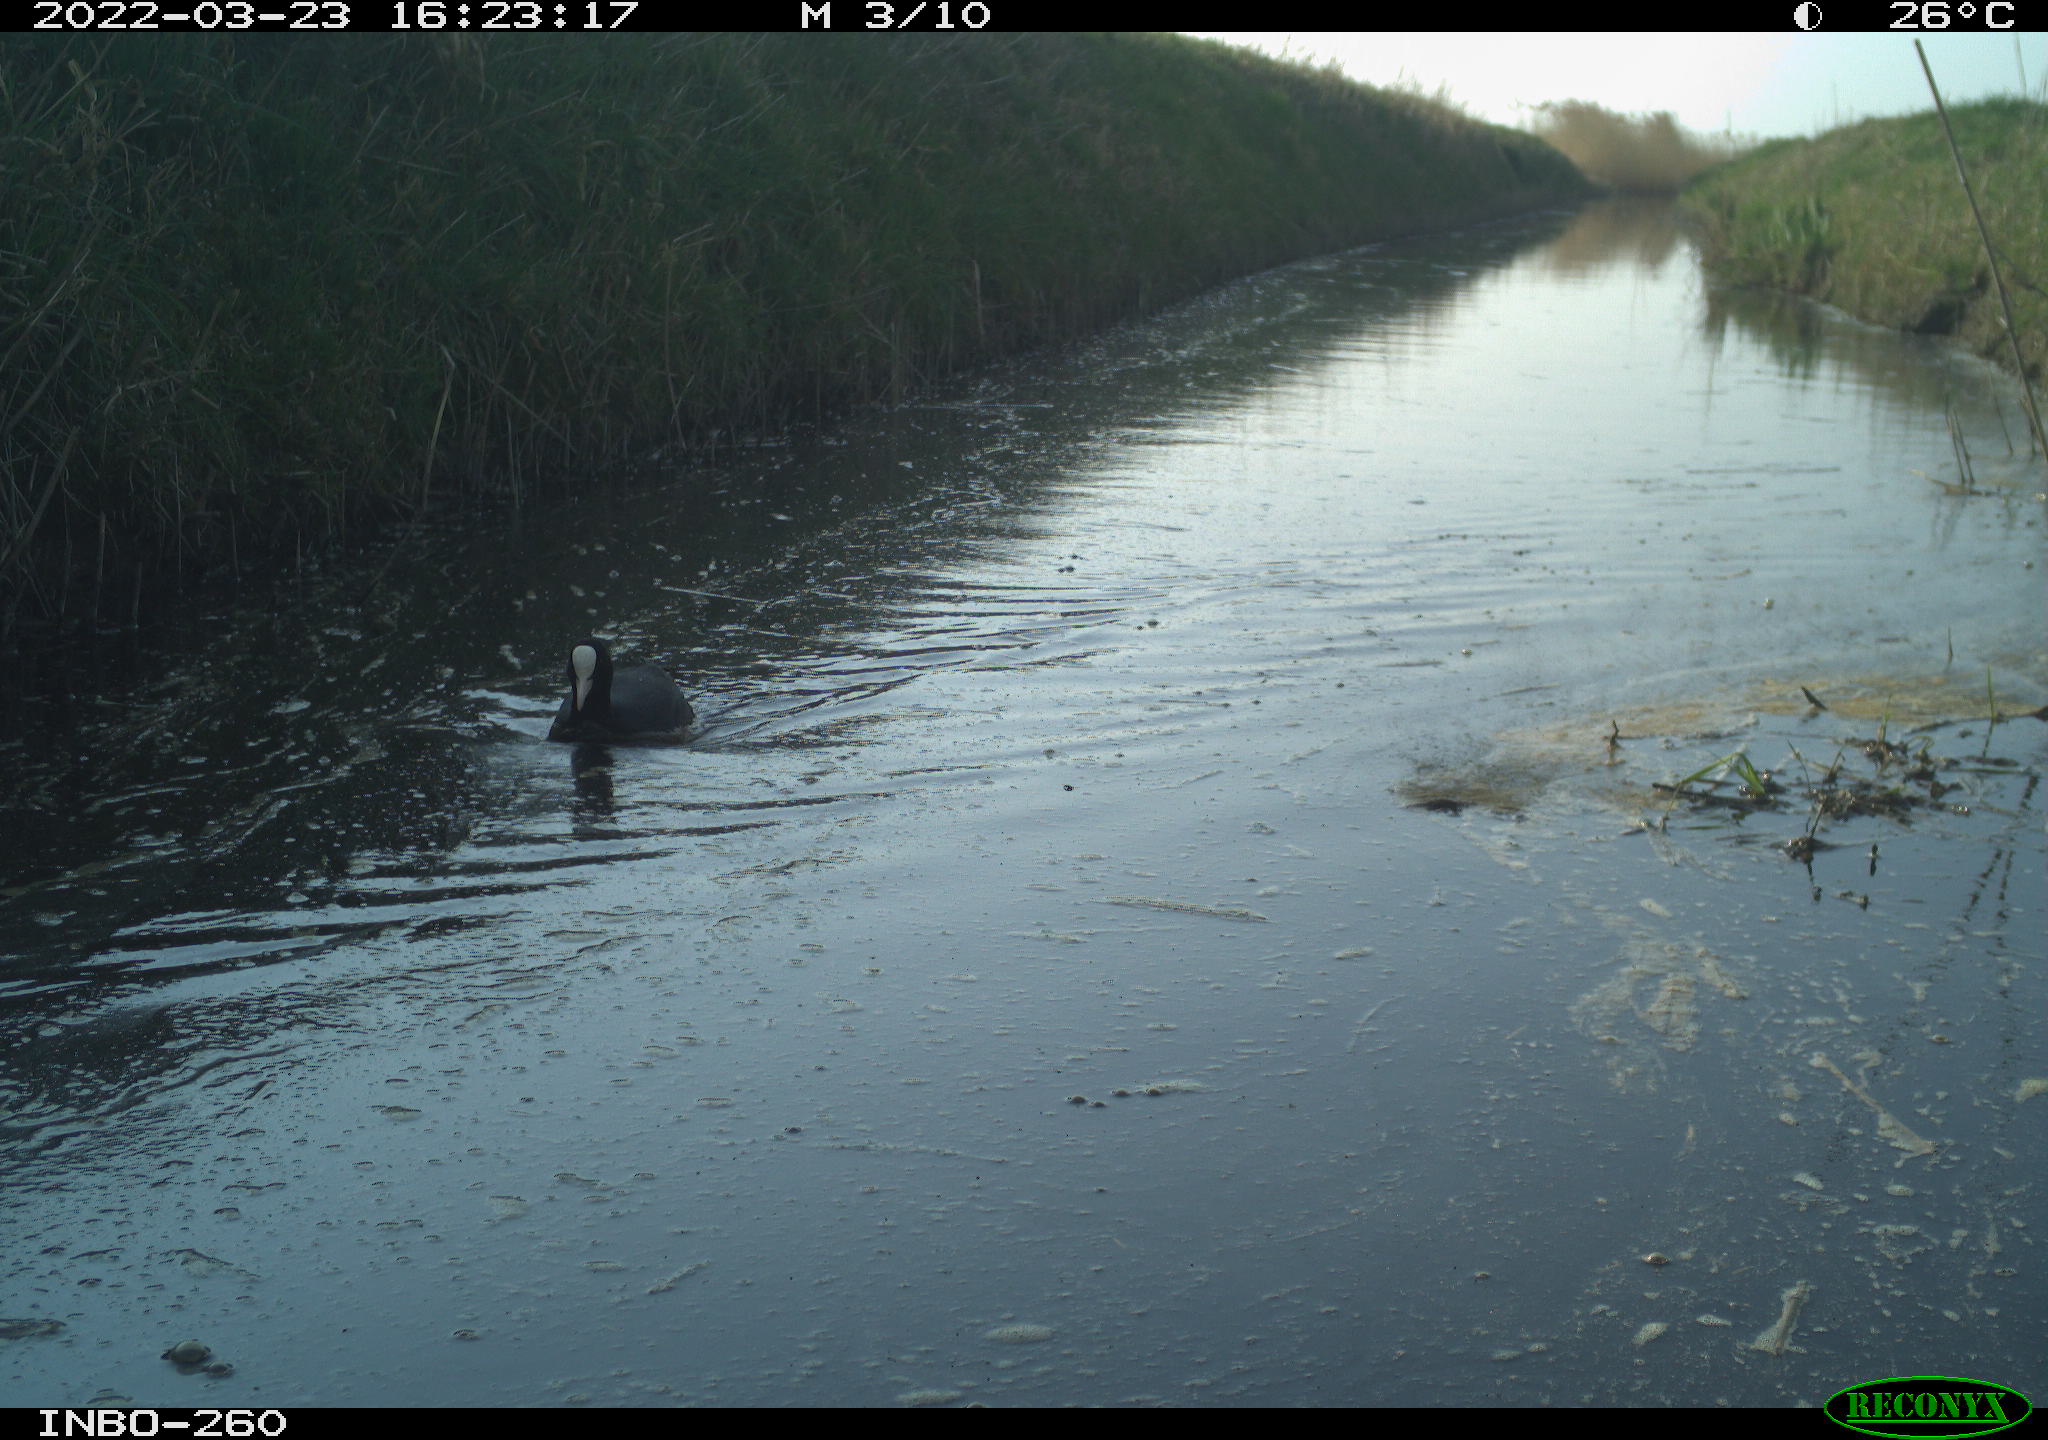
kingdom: Animalia
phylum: Chordata
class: Aves
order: Gruiformes
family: Rallidae
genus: Fulica
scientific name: Fulica atra
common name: Eurasian coot
